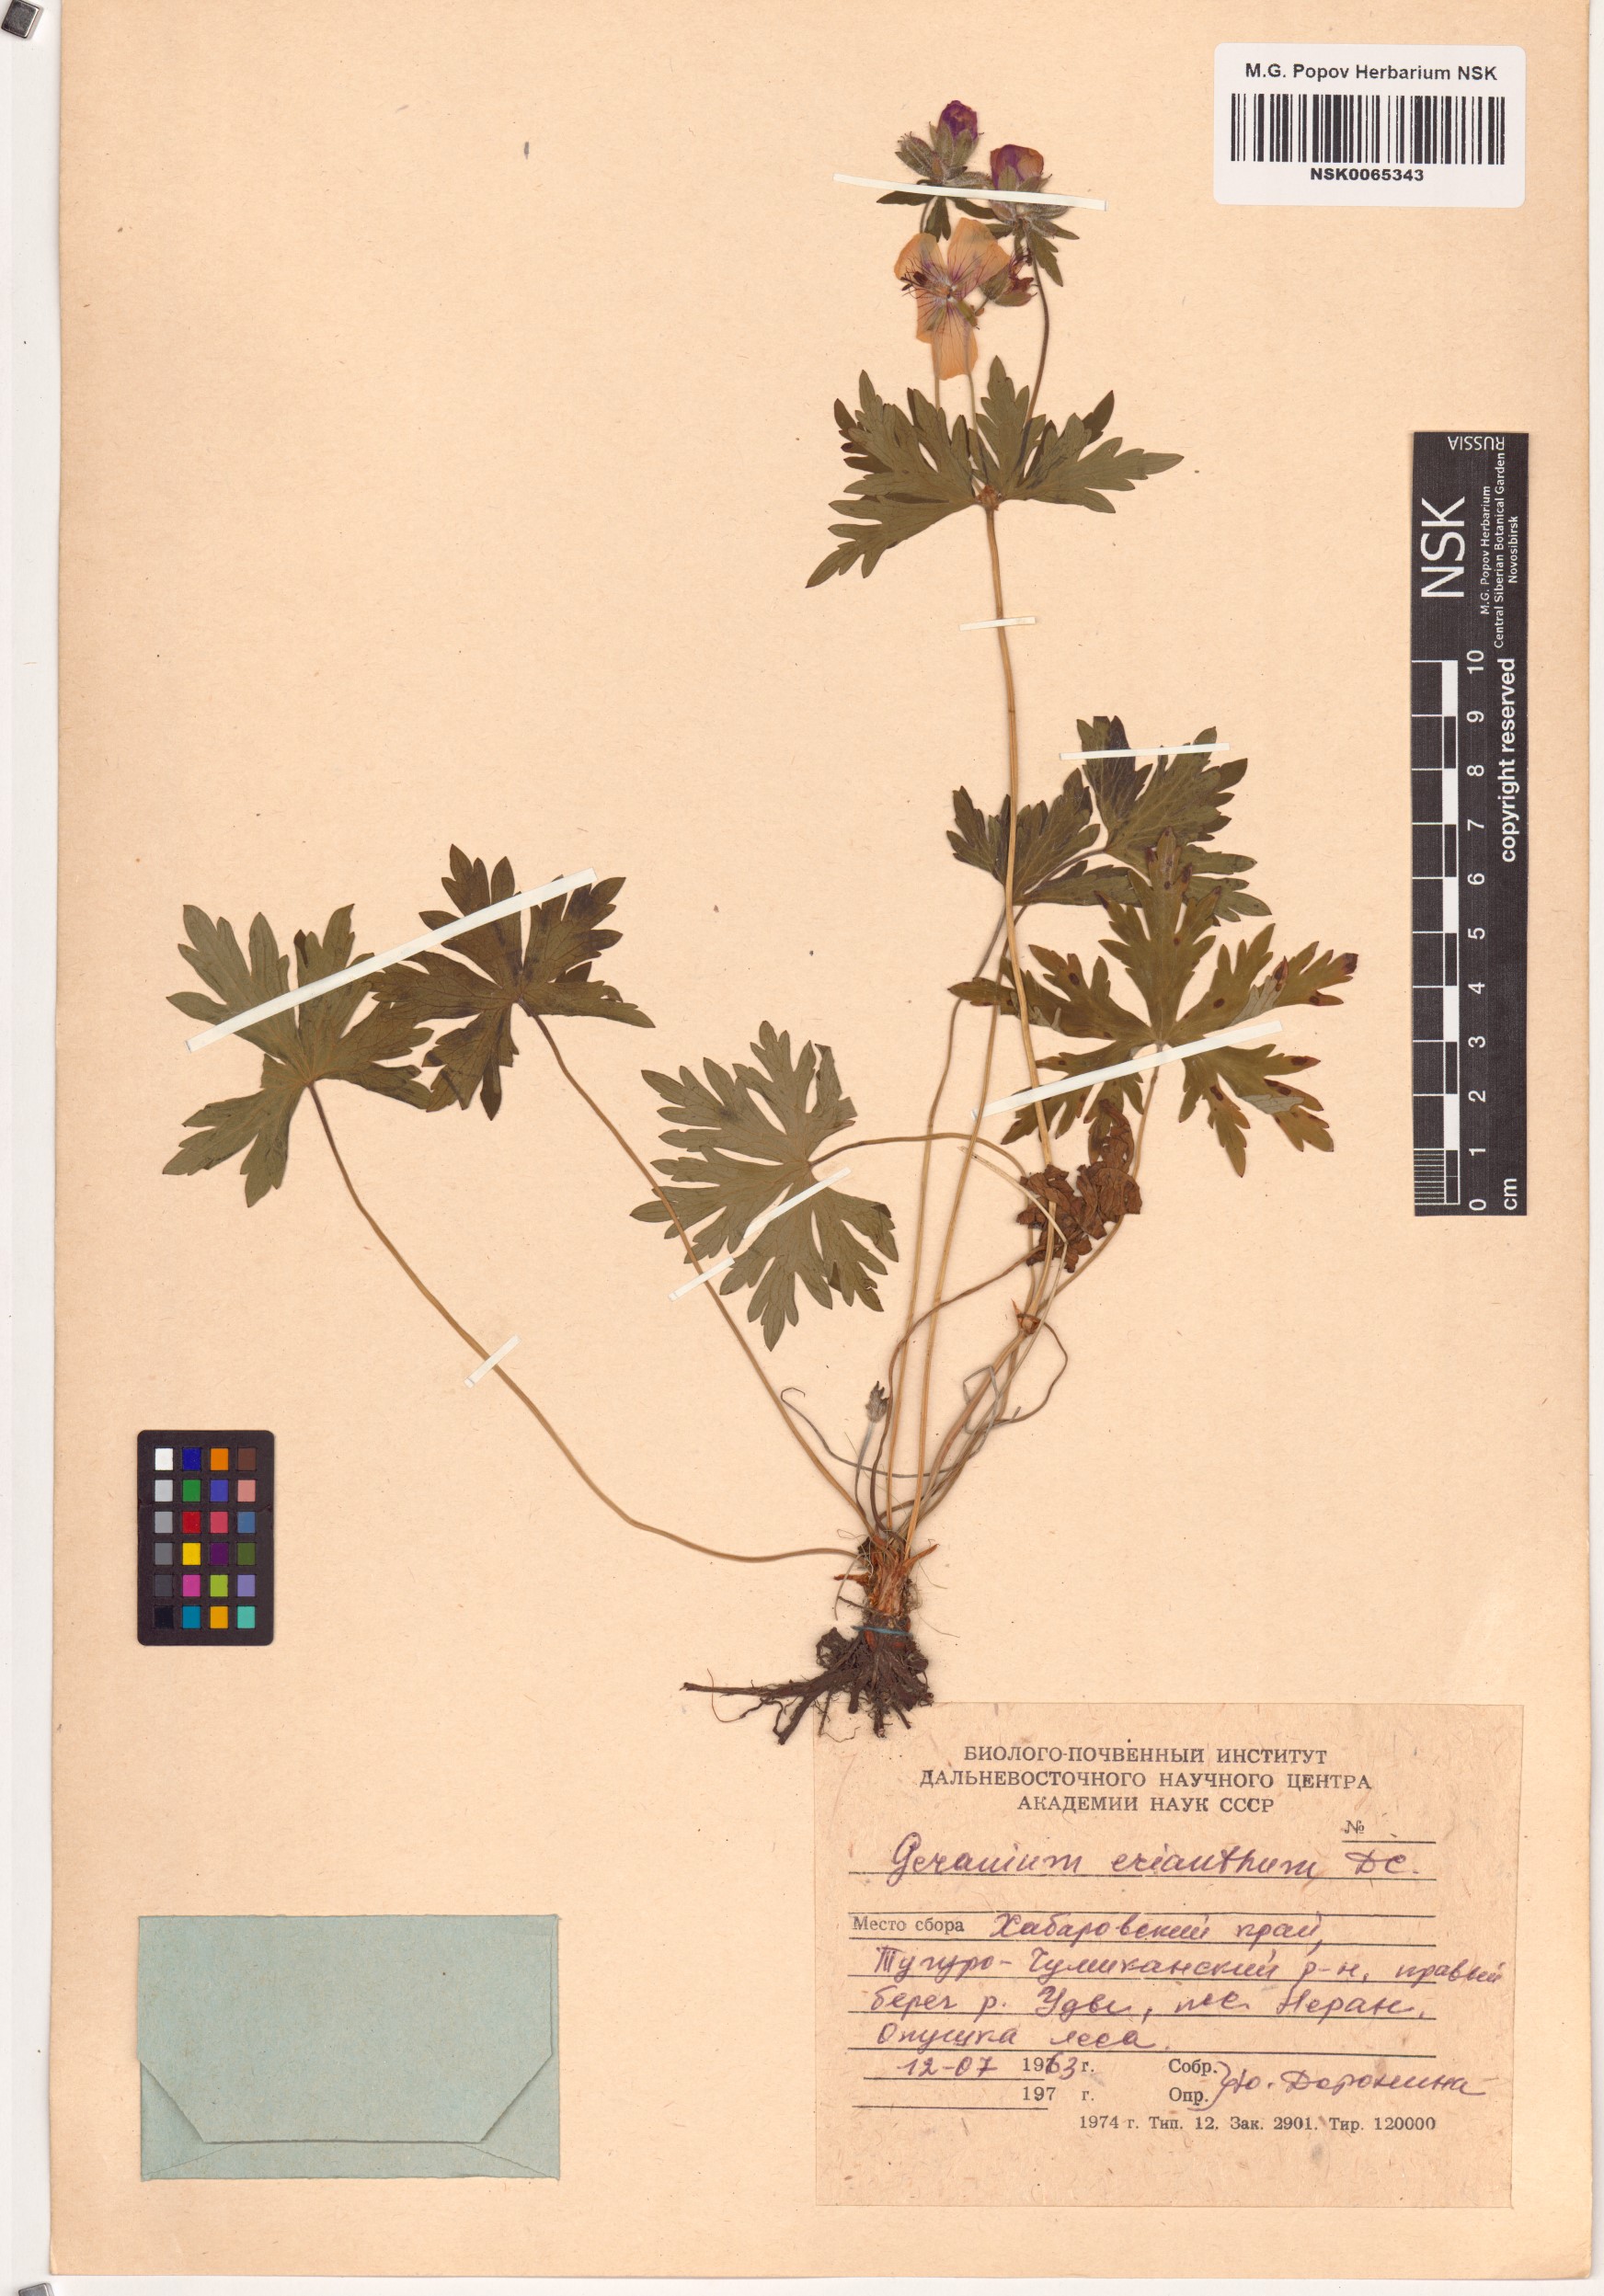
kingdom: Plantae
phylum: Tracheophyta
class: Magnoliopsida
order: Geraniales
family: Geraniaceae
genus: Geranium
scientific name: Geranium erianthum
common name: Northern crane's-bill
